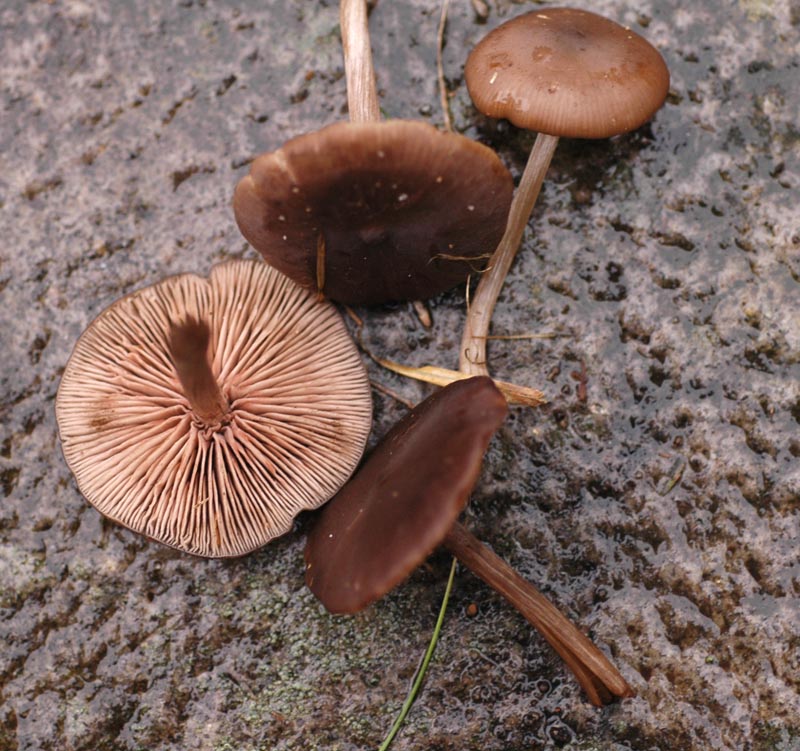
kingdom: Fungi
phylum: Basidiomycota
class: Agaricomycetes
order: Agaricales
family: Entolomataceae
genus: Entoloma
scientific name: Entoloma sericeum
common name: silkeglinsende rødblad
